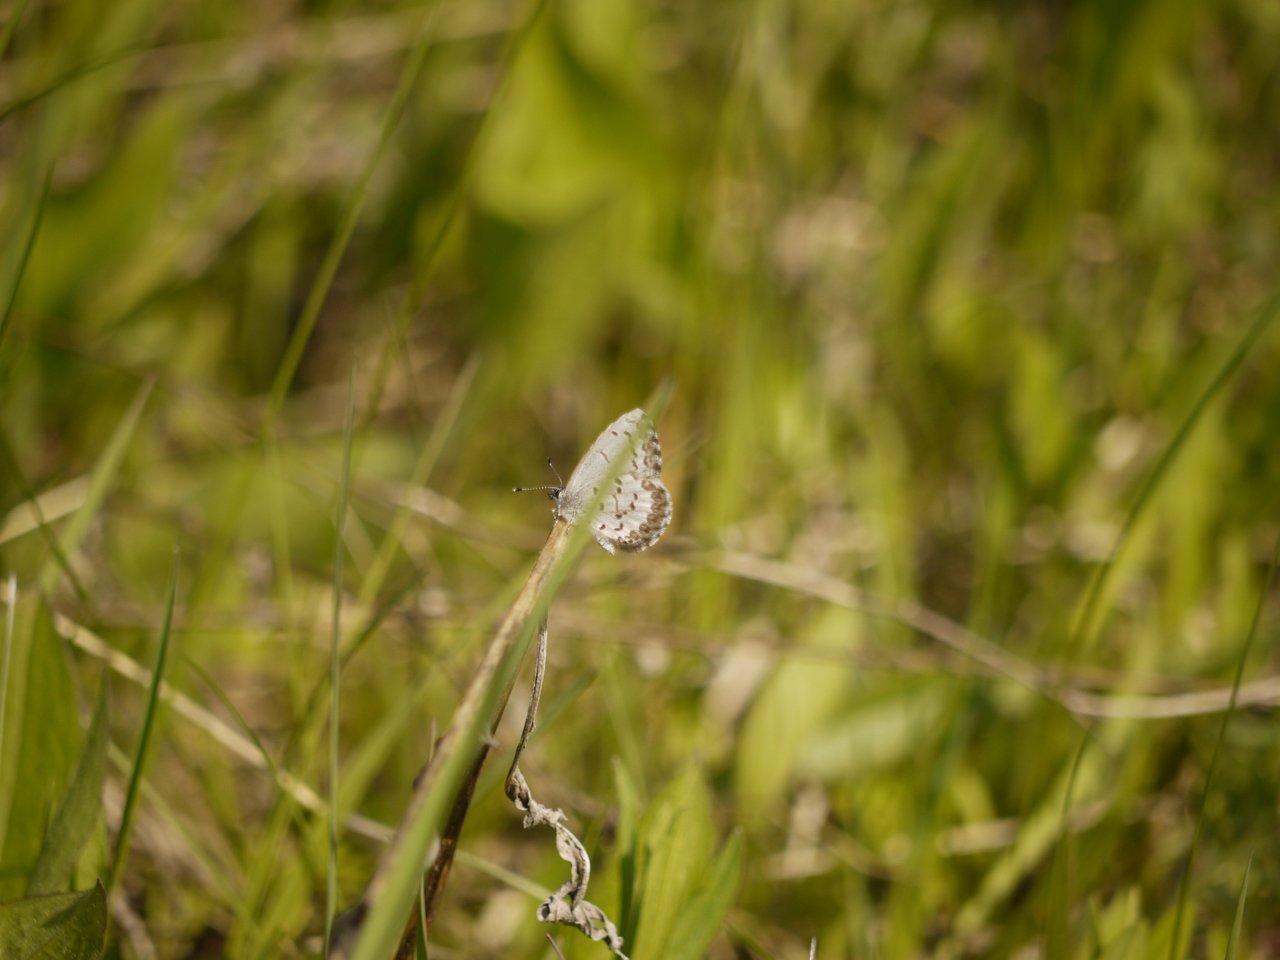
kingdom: Animalia
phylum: Arthropoda
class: Insecta
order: Lepidoptera
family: Lycaenidae
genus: Celastrina
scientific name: Celastrina
